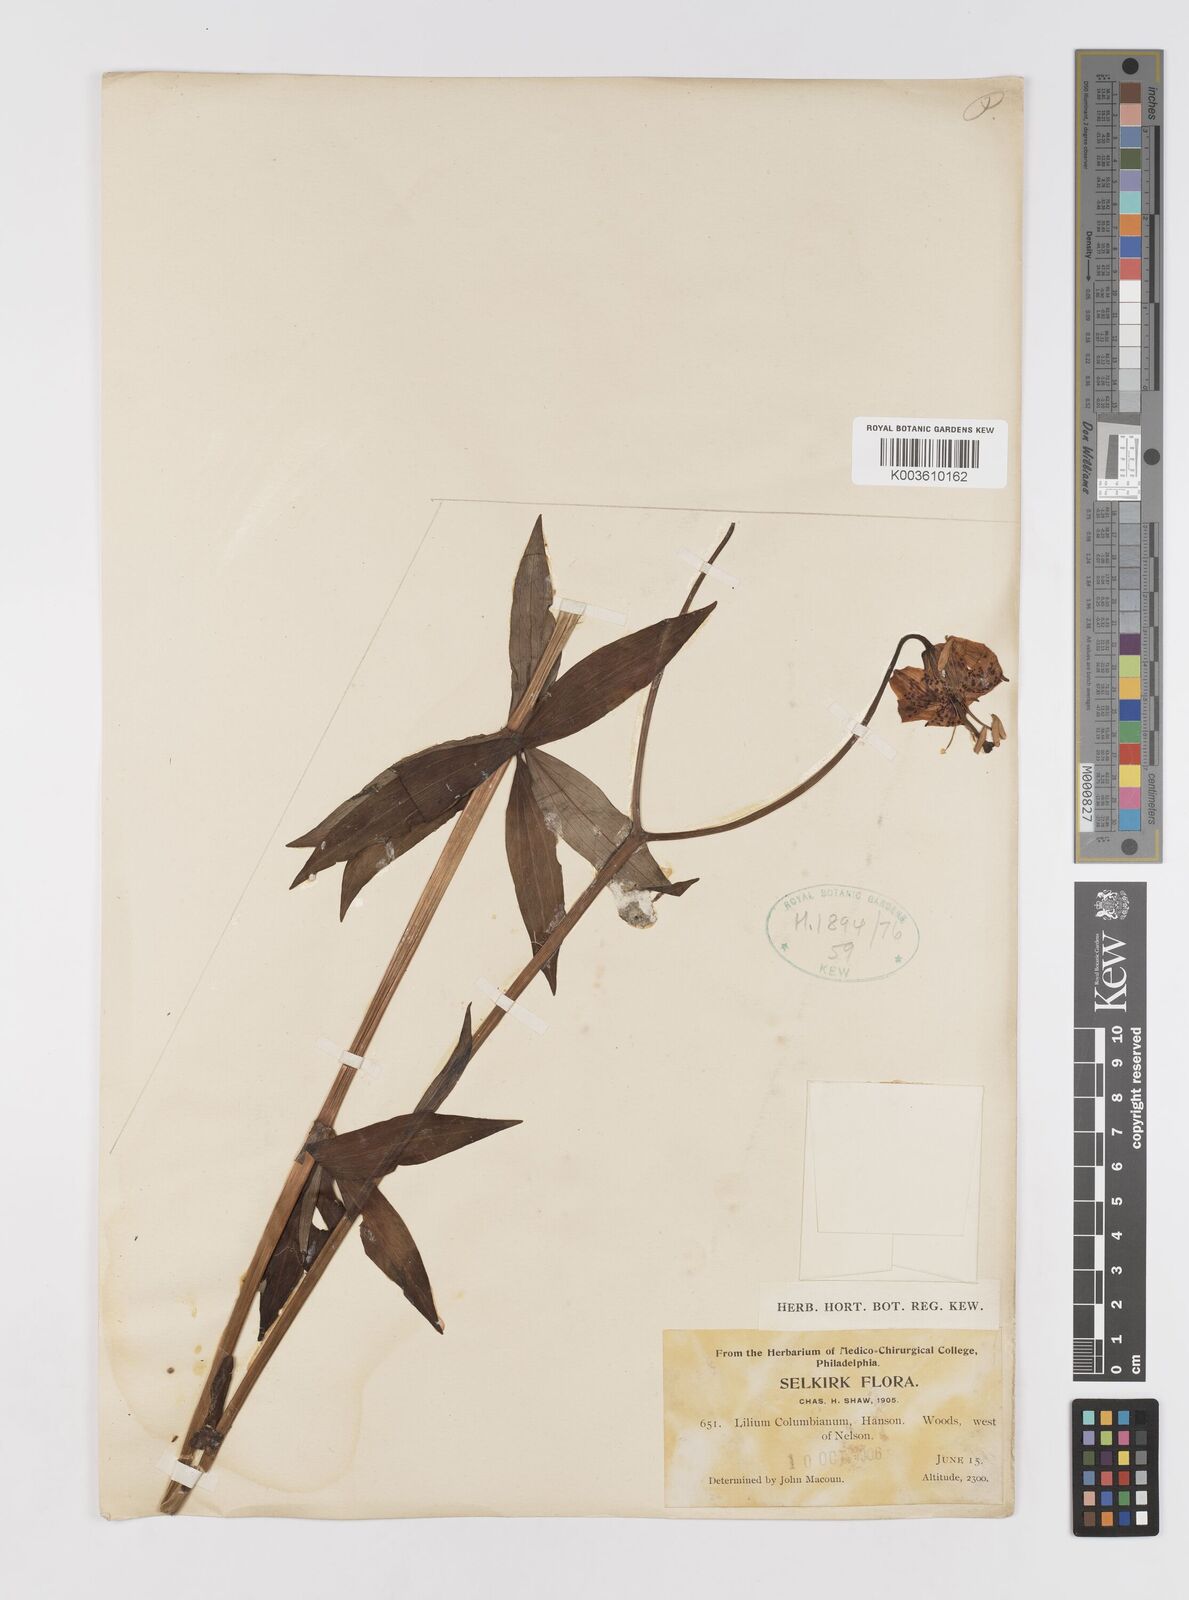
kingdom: Plantae
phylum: Tracheophyta
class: Liliopsida
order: Liliales
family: Liliaceae
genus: Lilium
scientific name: Lilium
